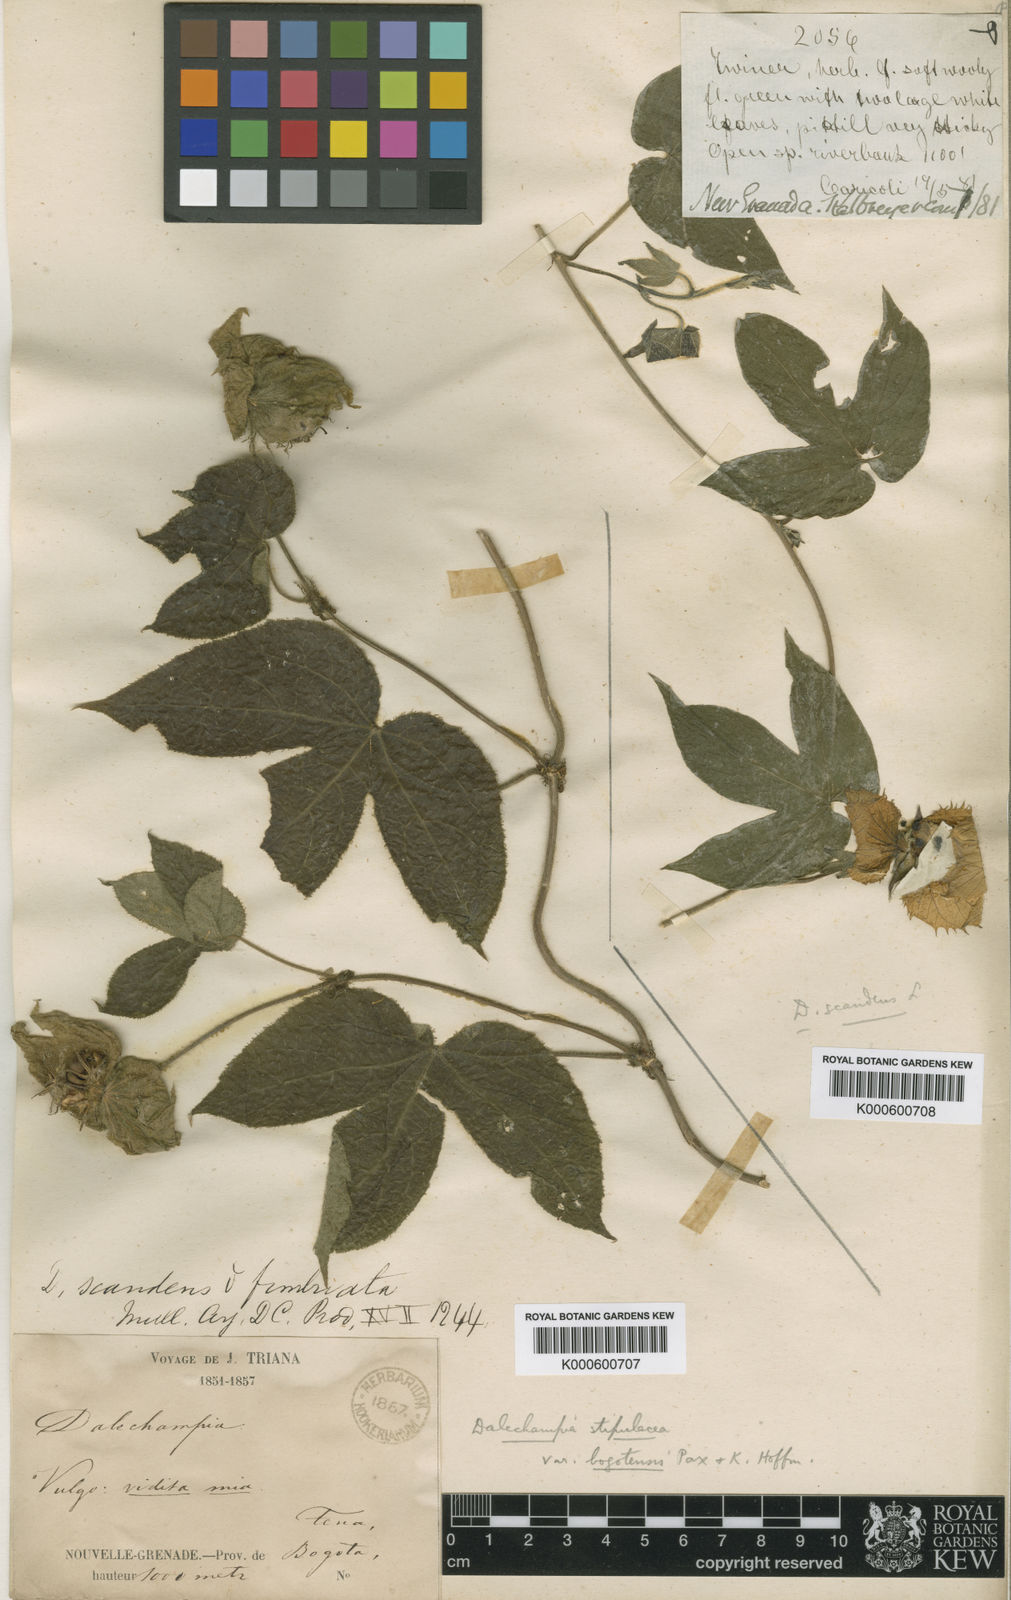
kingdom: Plantae
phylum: Tracheophyta
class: Magnoliopsida
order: Malpighiales
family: Euphorbiaceae
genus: Dalechampia
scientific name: Dalechampia
